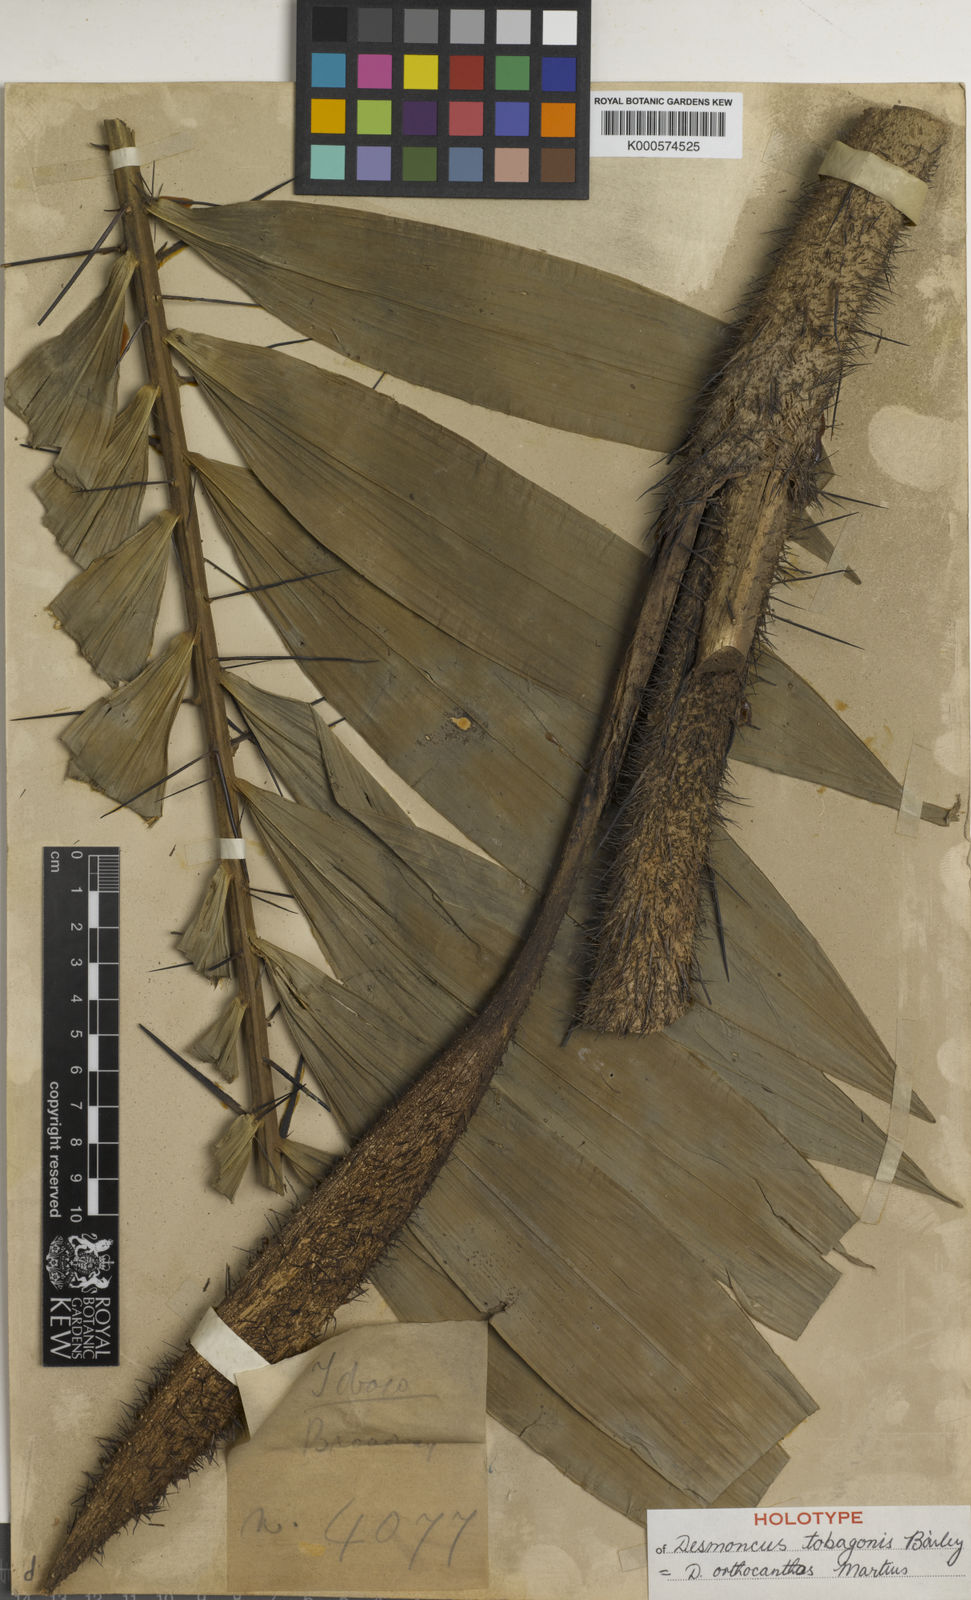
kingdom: Plantae
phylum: Tracheophyta
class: Liliopsida
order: Arecales
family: Arecaceae
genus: Desmoncus
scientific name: Desmoncus orthacanthos
